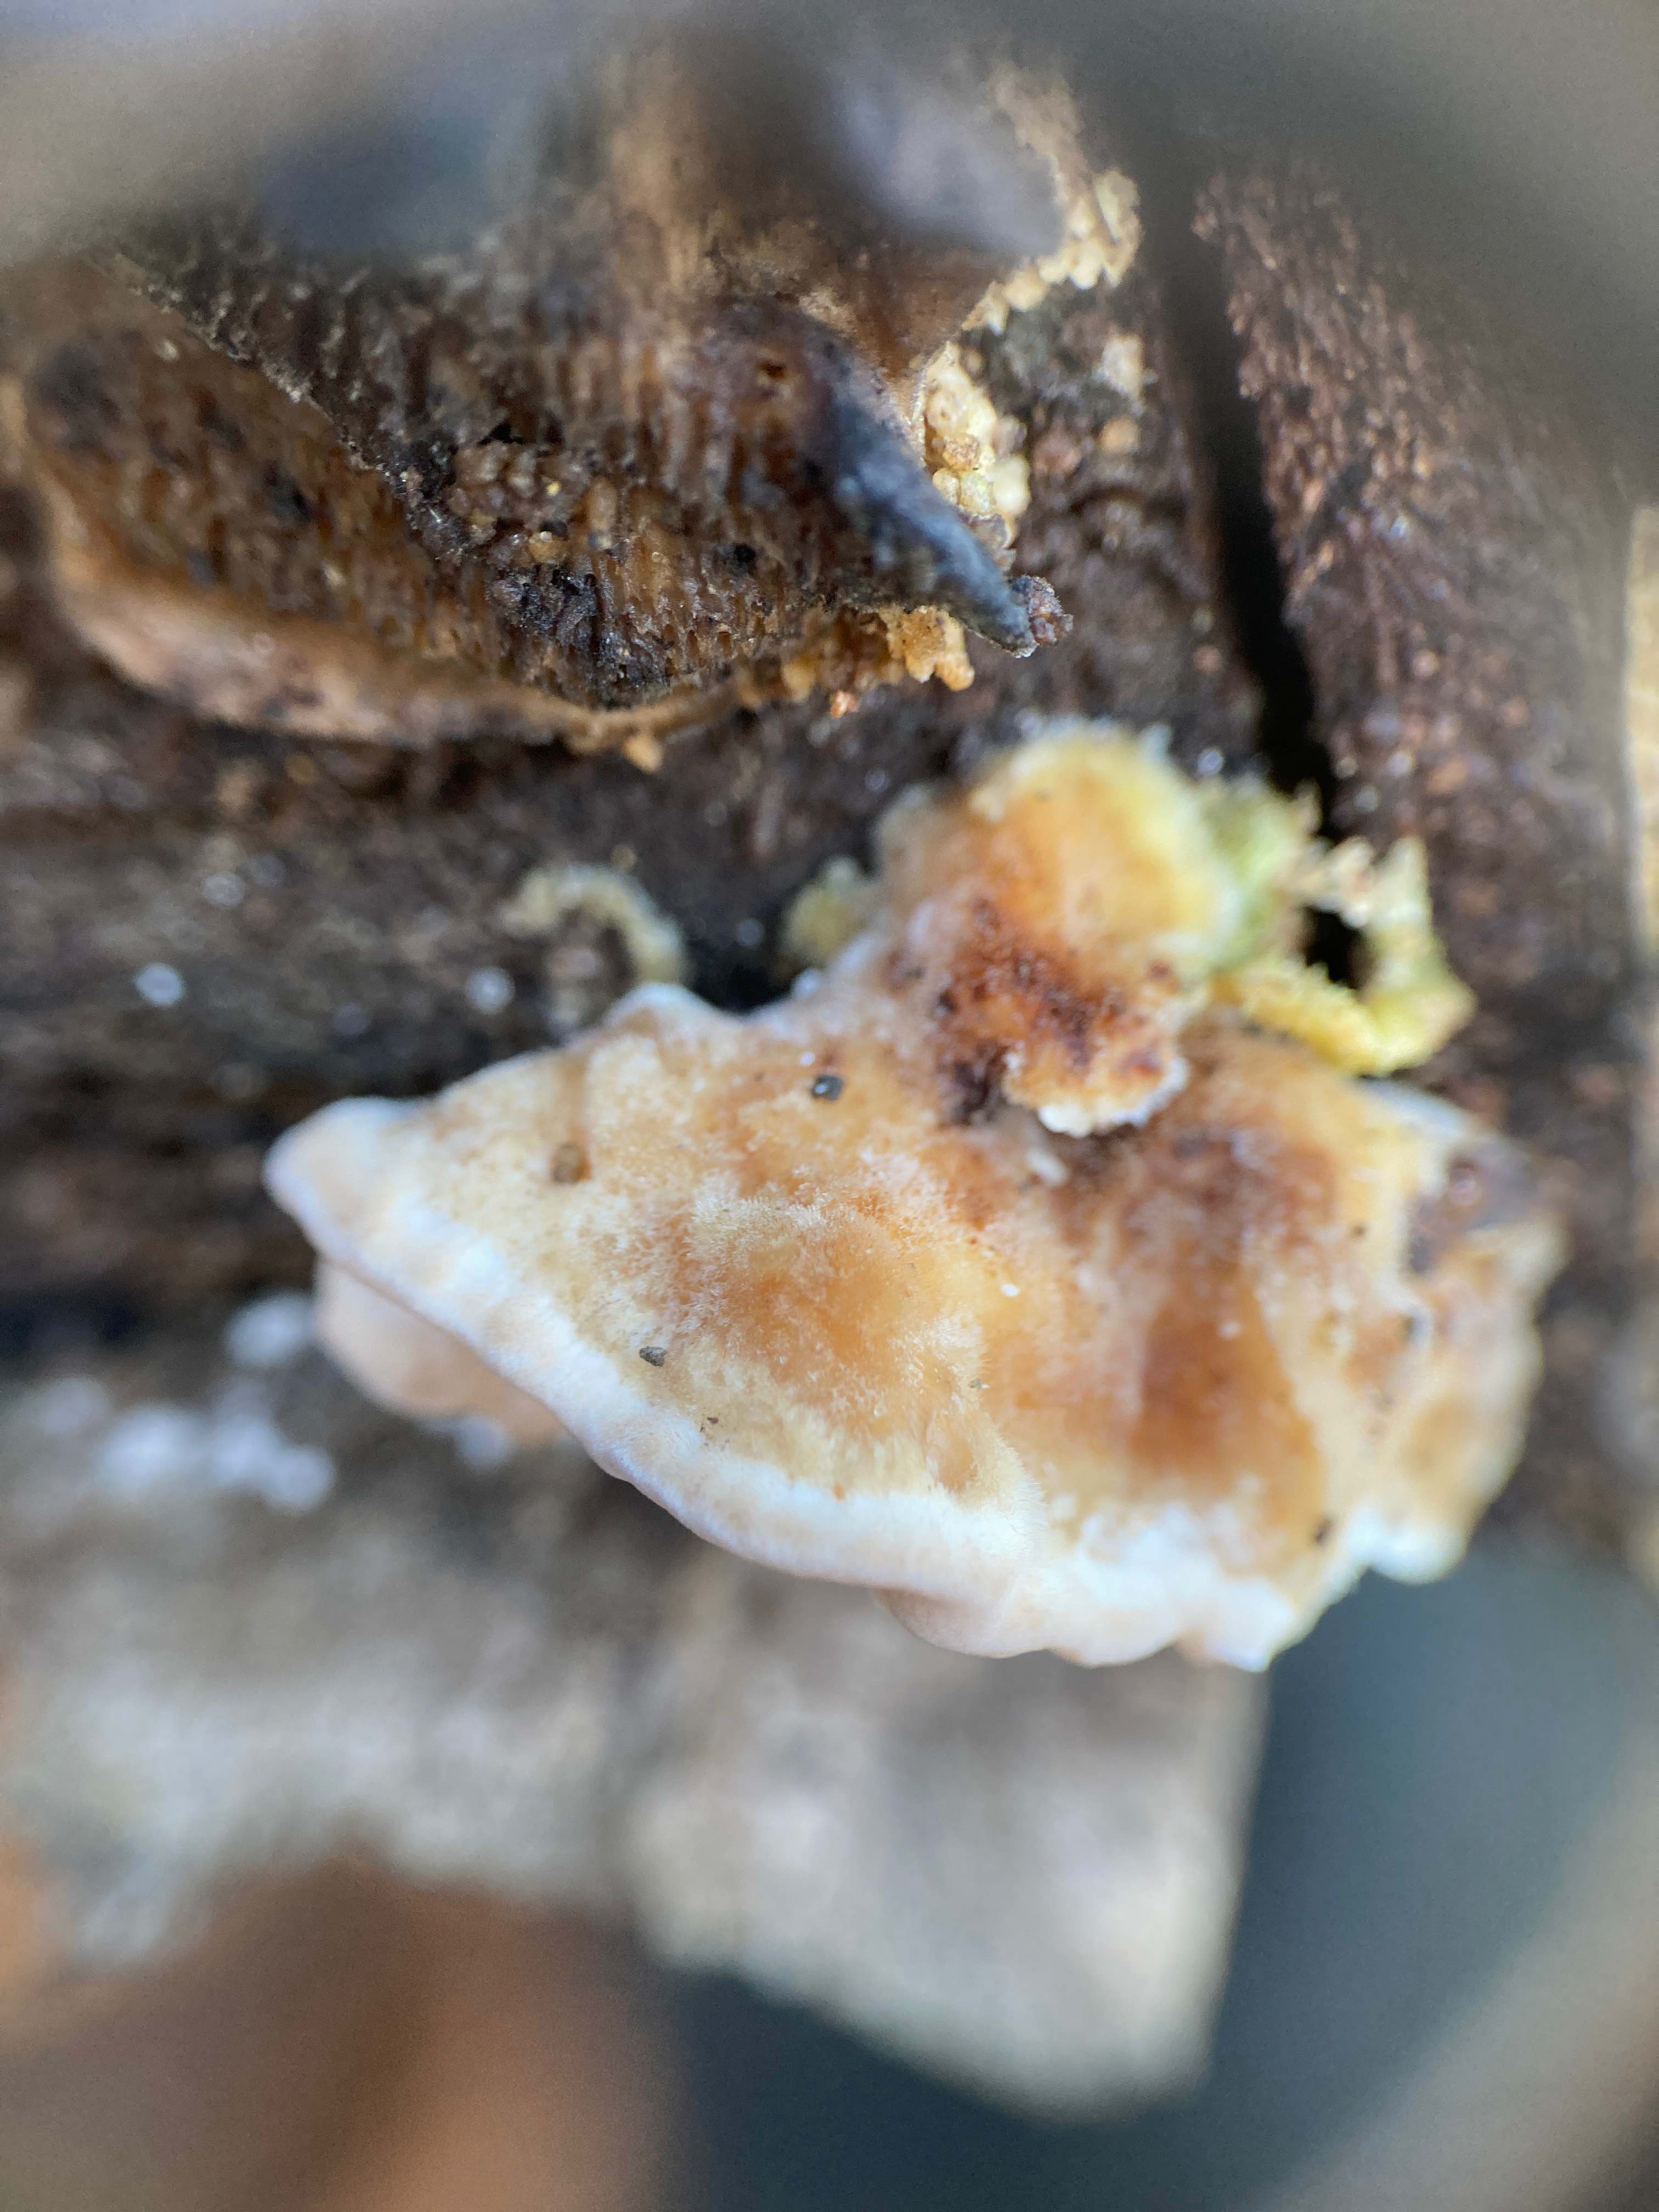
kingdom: Fungi
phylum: Basidiomycota
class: Agaricomycetes
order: Polyporales
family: Polyporaceae
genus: Trametes
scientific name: Trametes versicolor
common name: broget læderporesvamp
